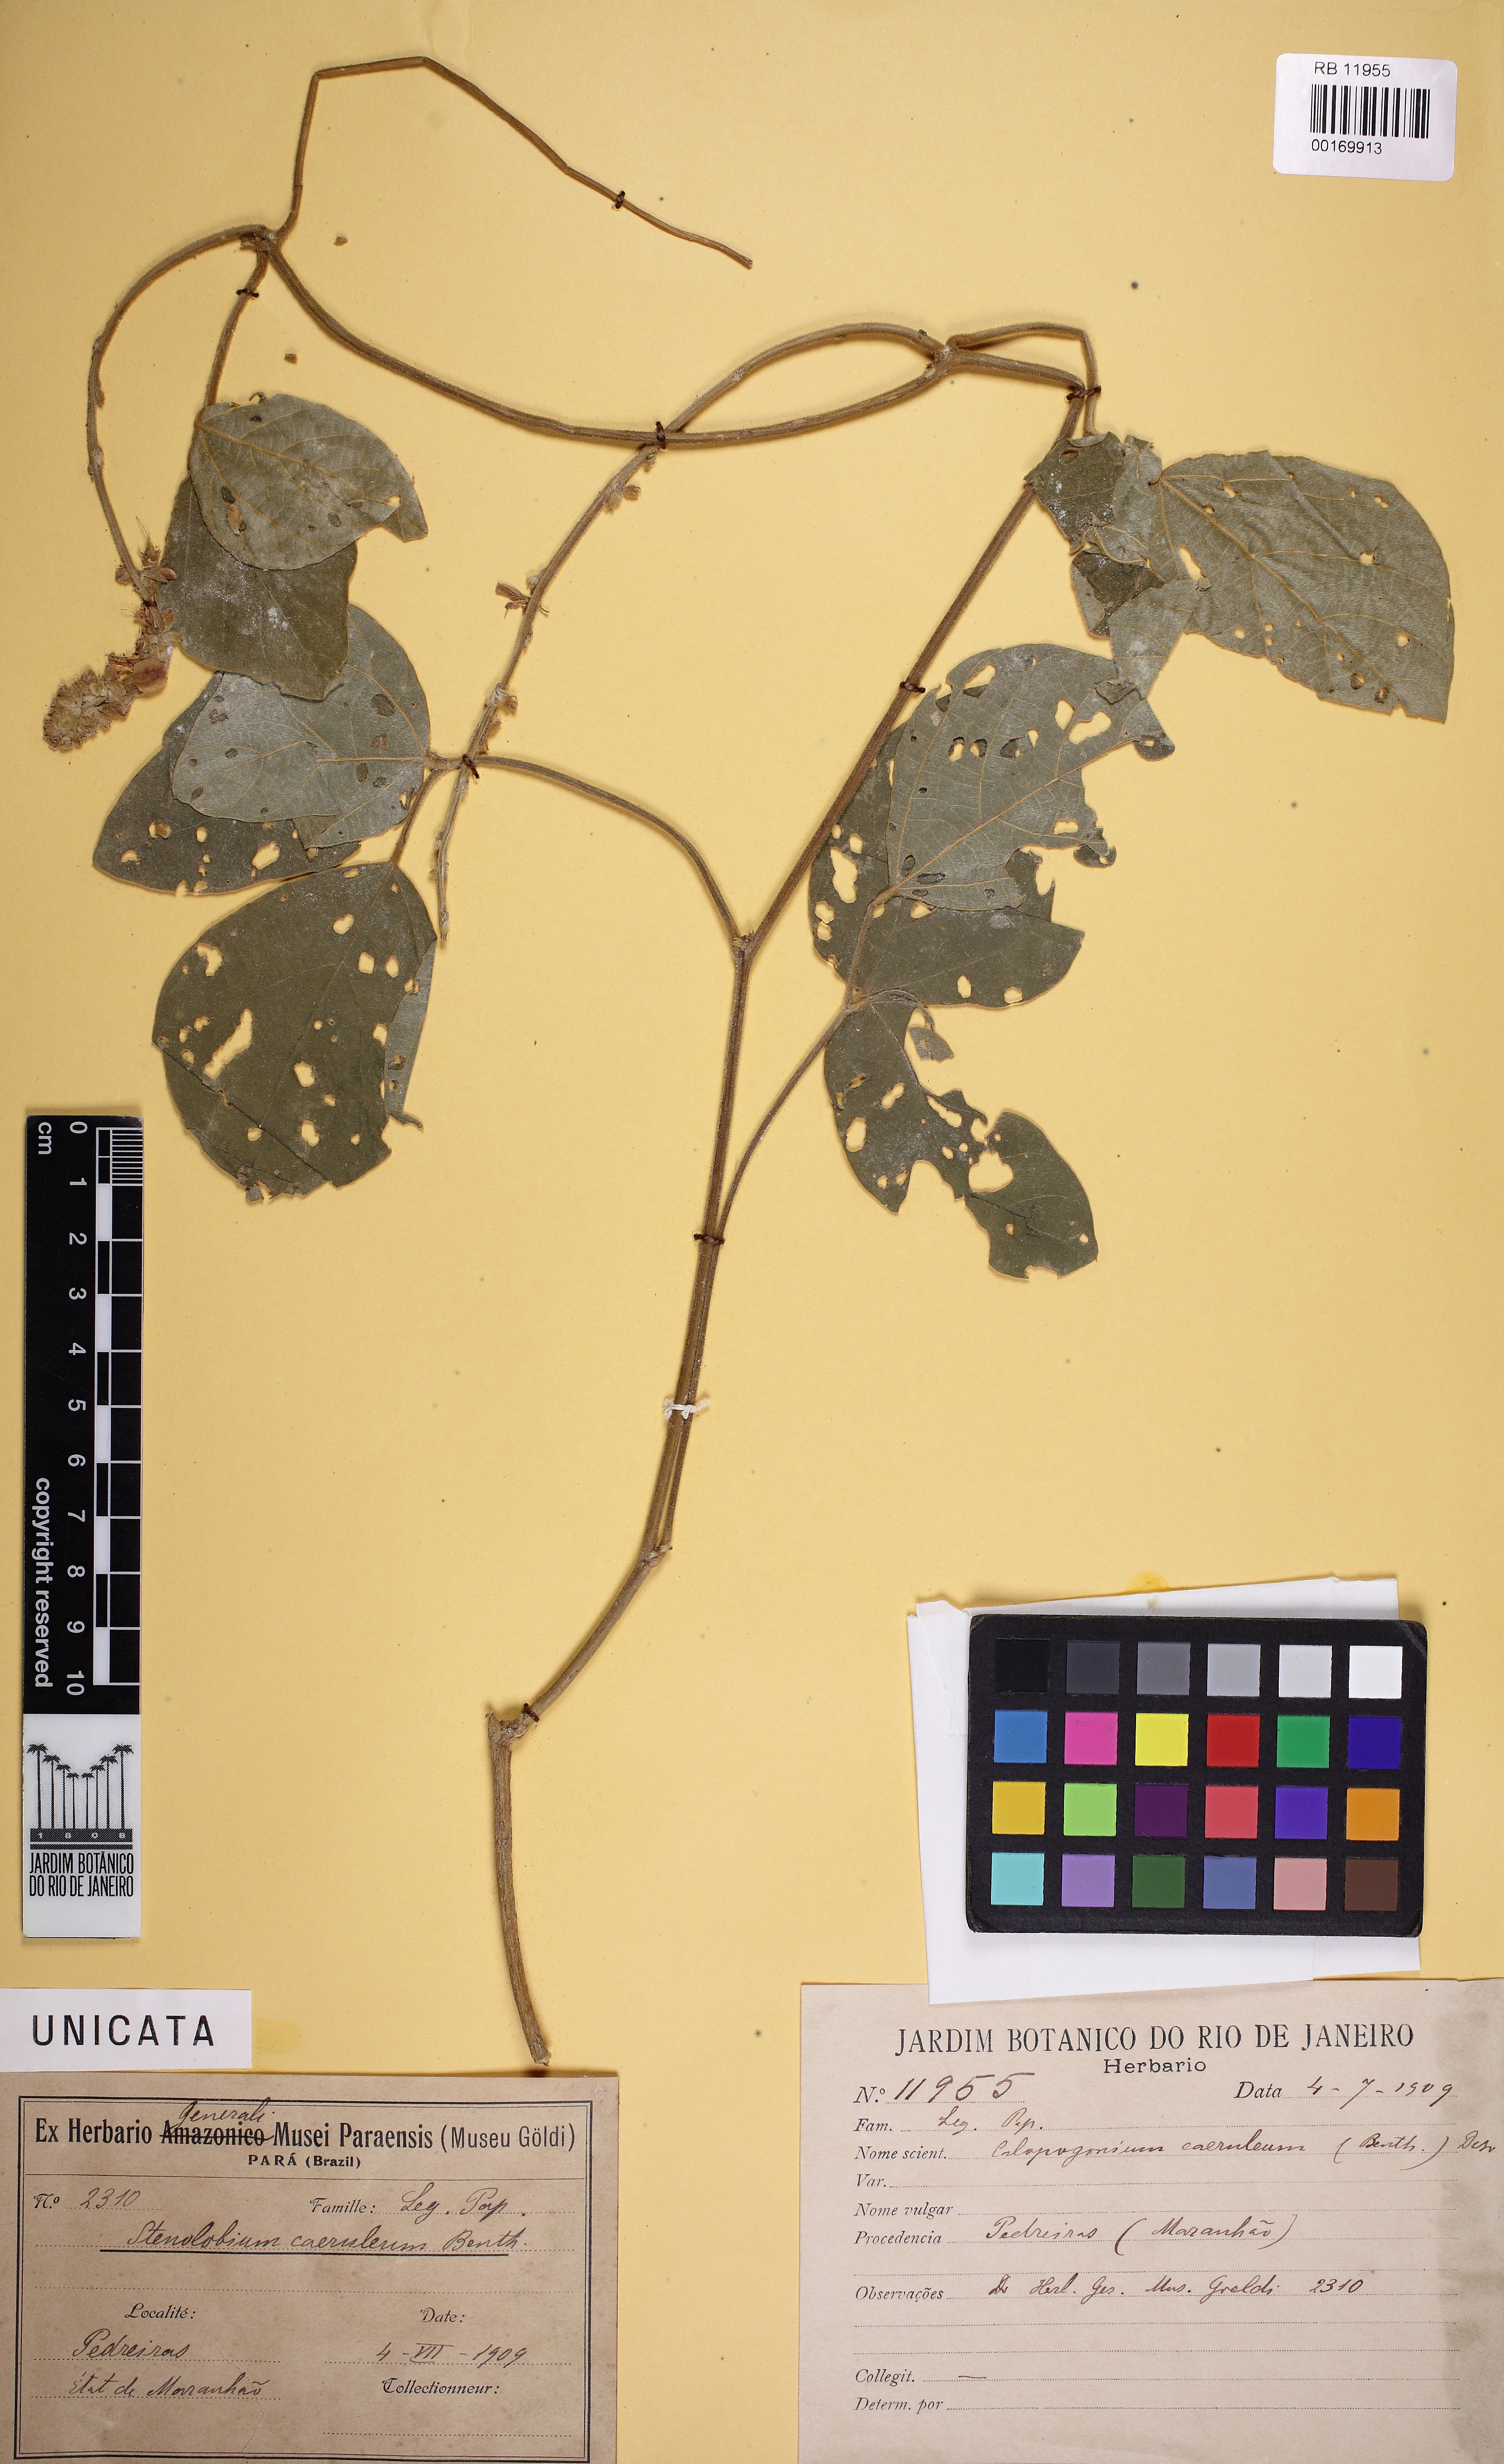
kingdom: Plantae
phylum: Tracheophyta
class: Magnoliopsida
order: Fabales
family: Fabaceae
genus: Calopogonium
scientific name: Calopogonium caeruleum
